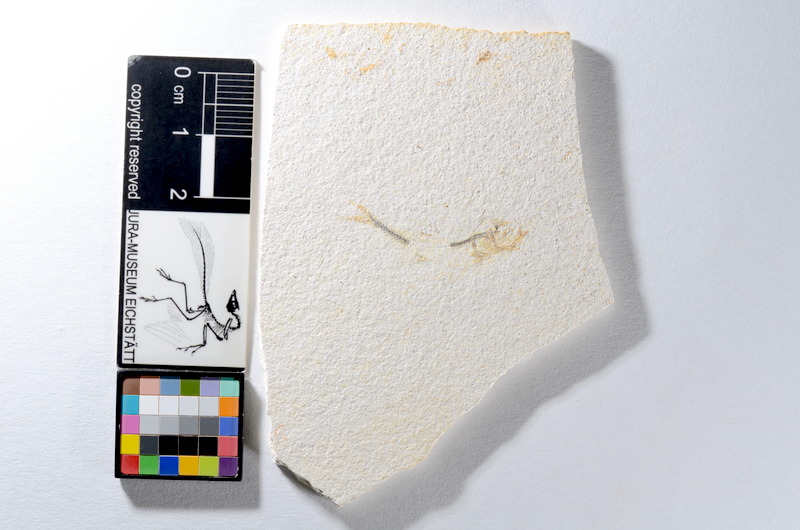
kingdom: Animalia
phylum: Chordata
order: Salmoniformes
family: Orthogonikleithridae
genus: Orthogonikleithrus
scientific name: Orthogonikleithrus hoelli
